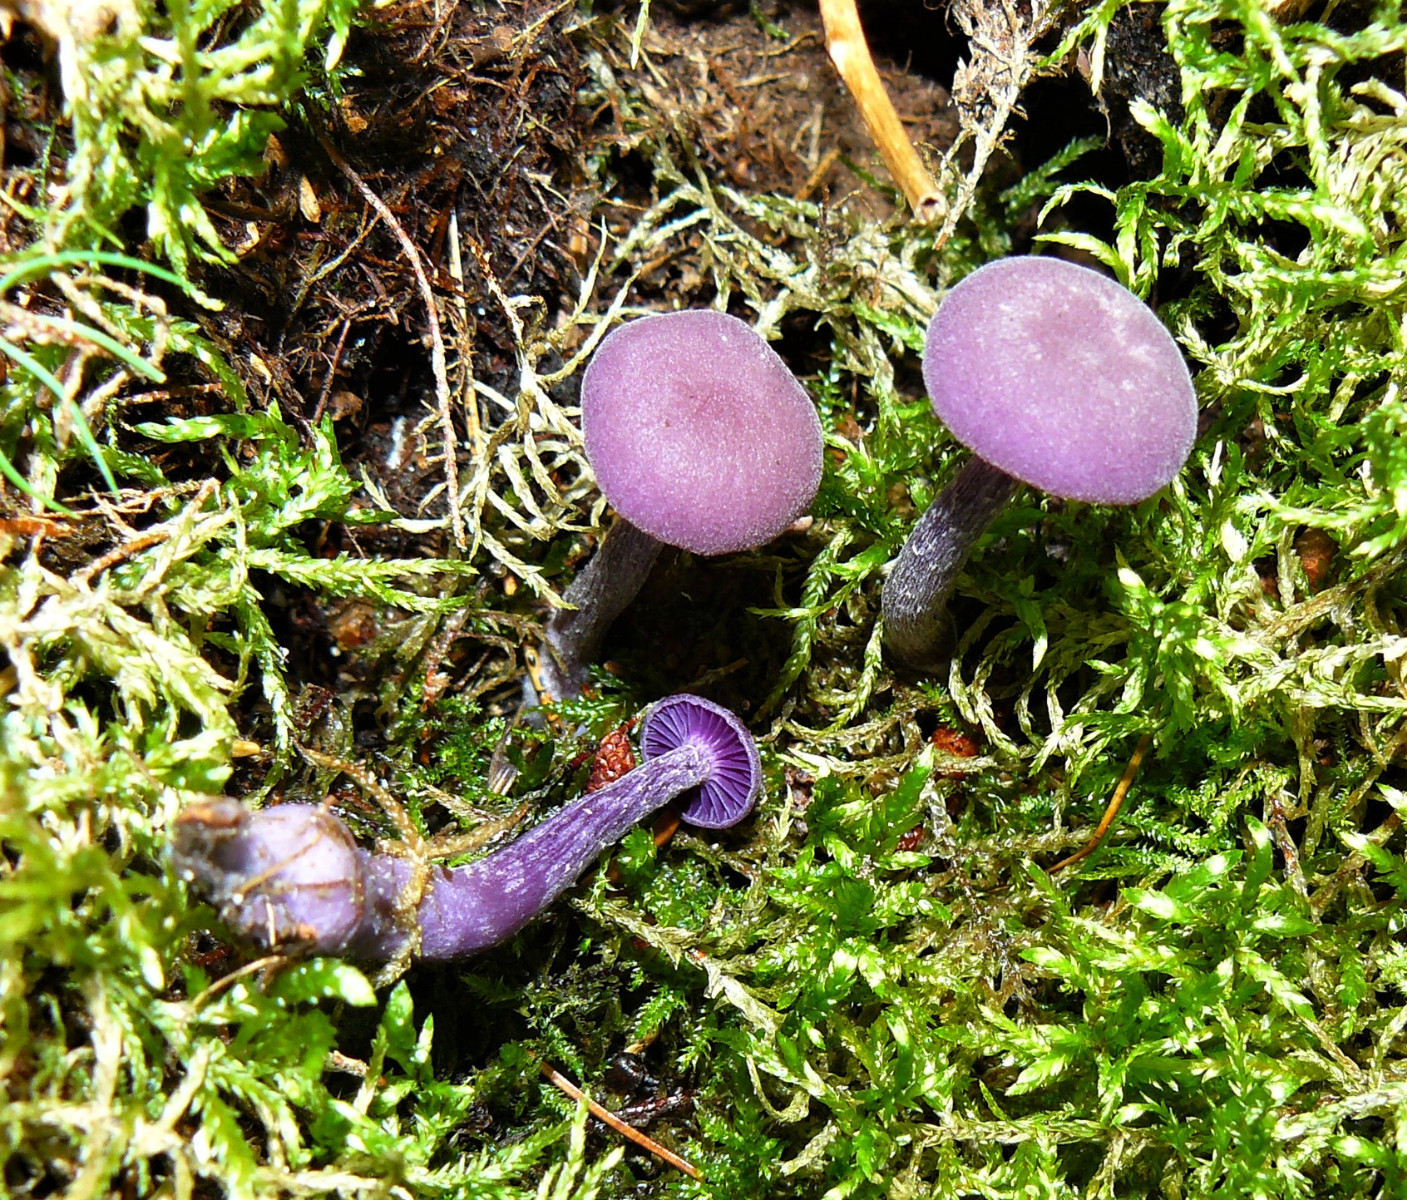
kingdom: Fungi
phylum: Basidiomycota
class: Agaricomycetes
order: Agaricales
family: Hydnangiaceae
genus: Laccaria
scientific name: Laccaria amethystina
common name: violet ametysthat
